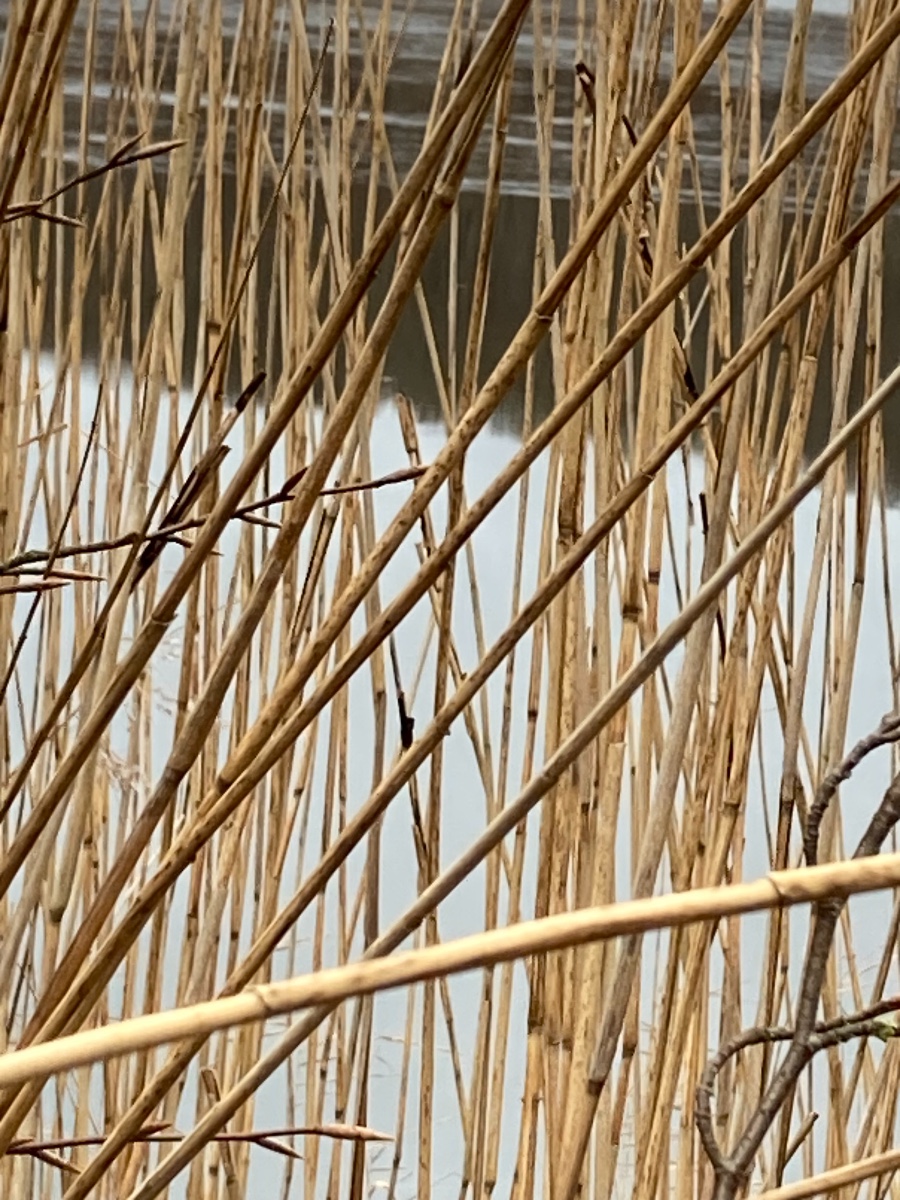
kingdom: Fungi
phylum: Basidiomycota
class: Ustilaginomycetes
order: Ustilaginales
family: Ustilaginaceae
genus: Ustilago
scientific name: Ustilago grandis
